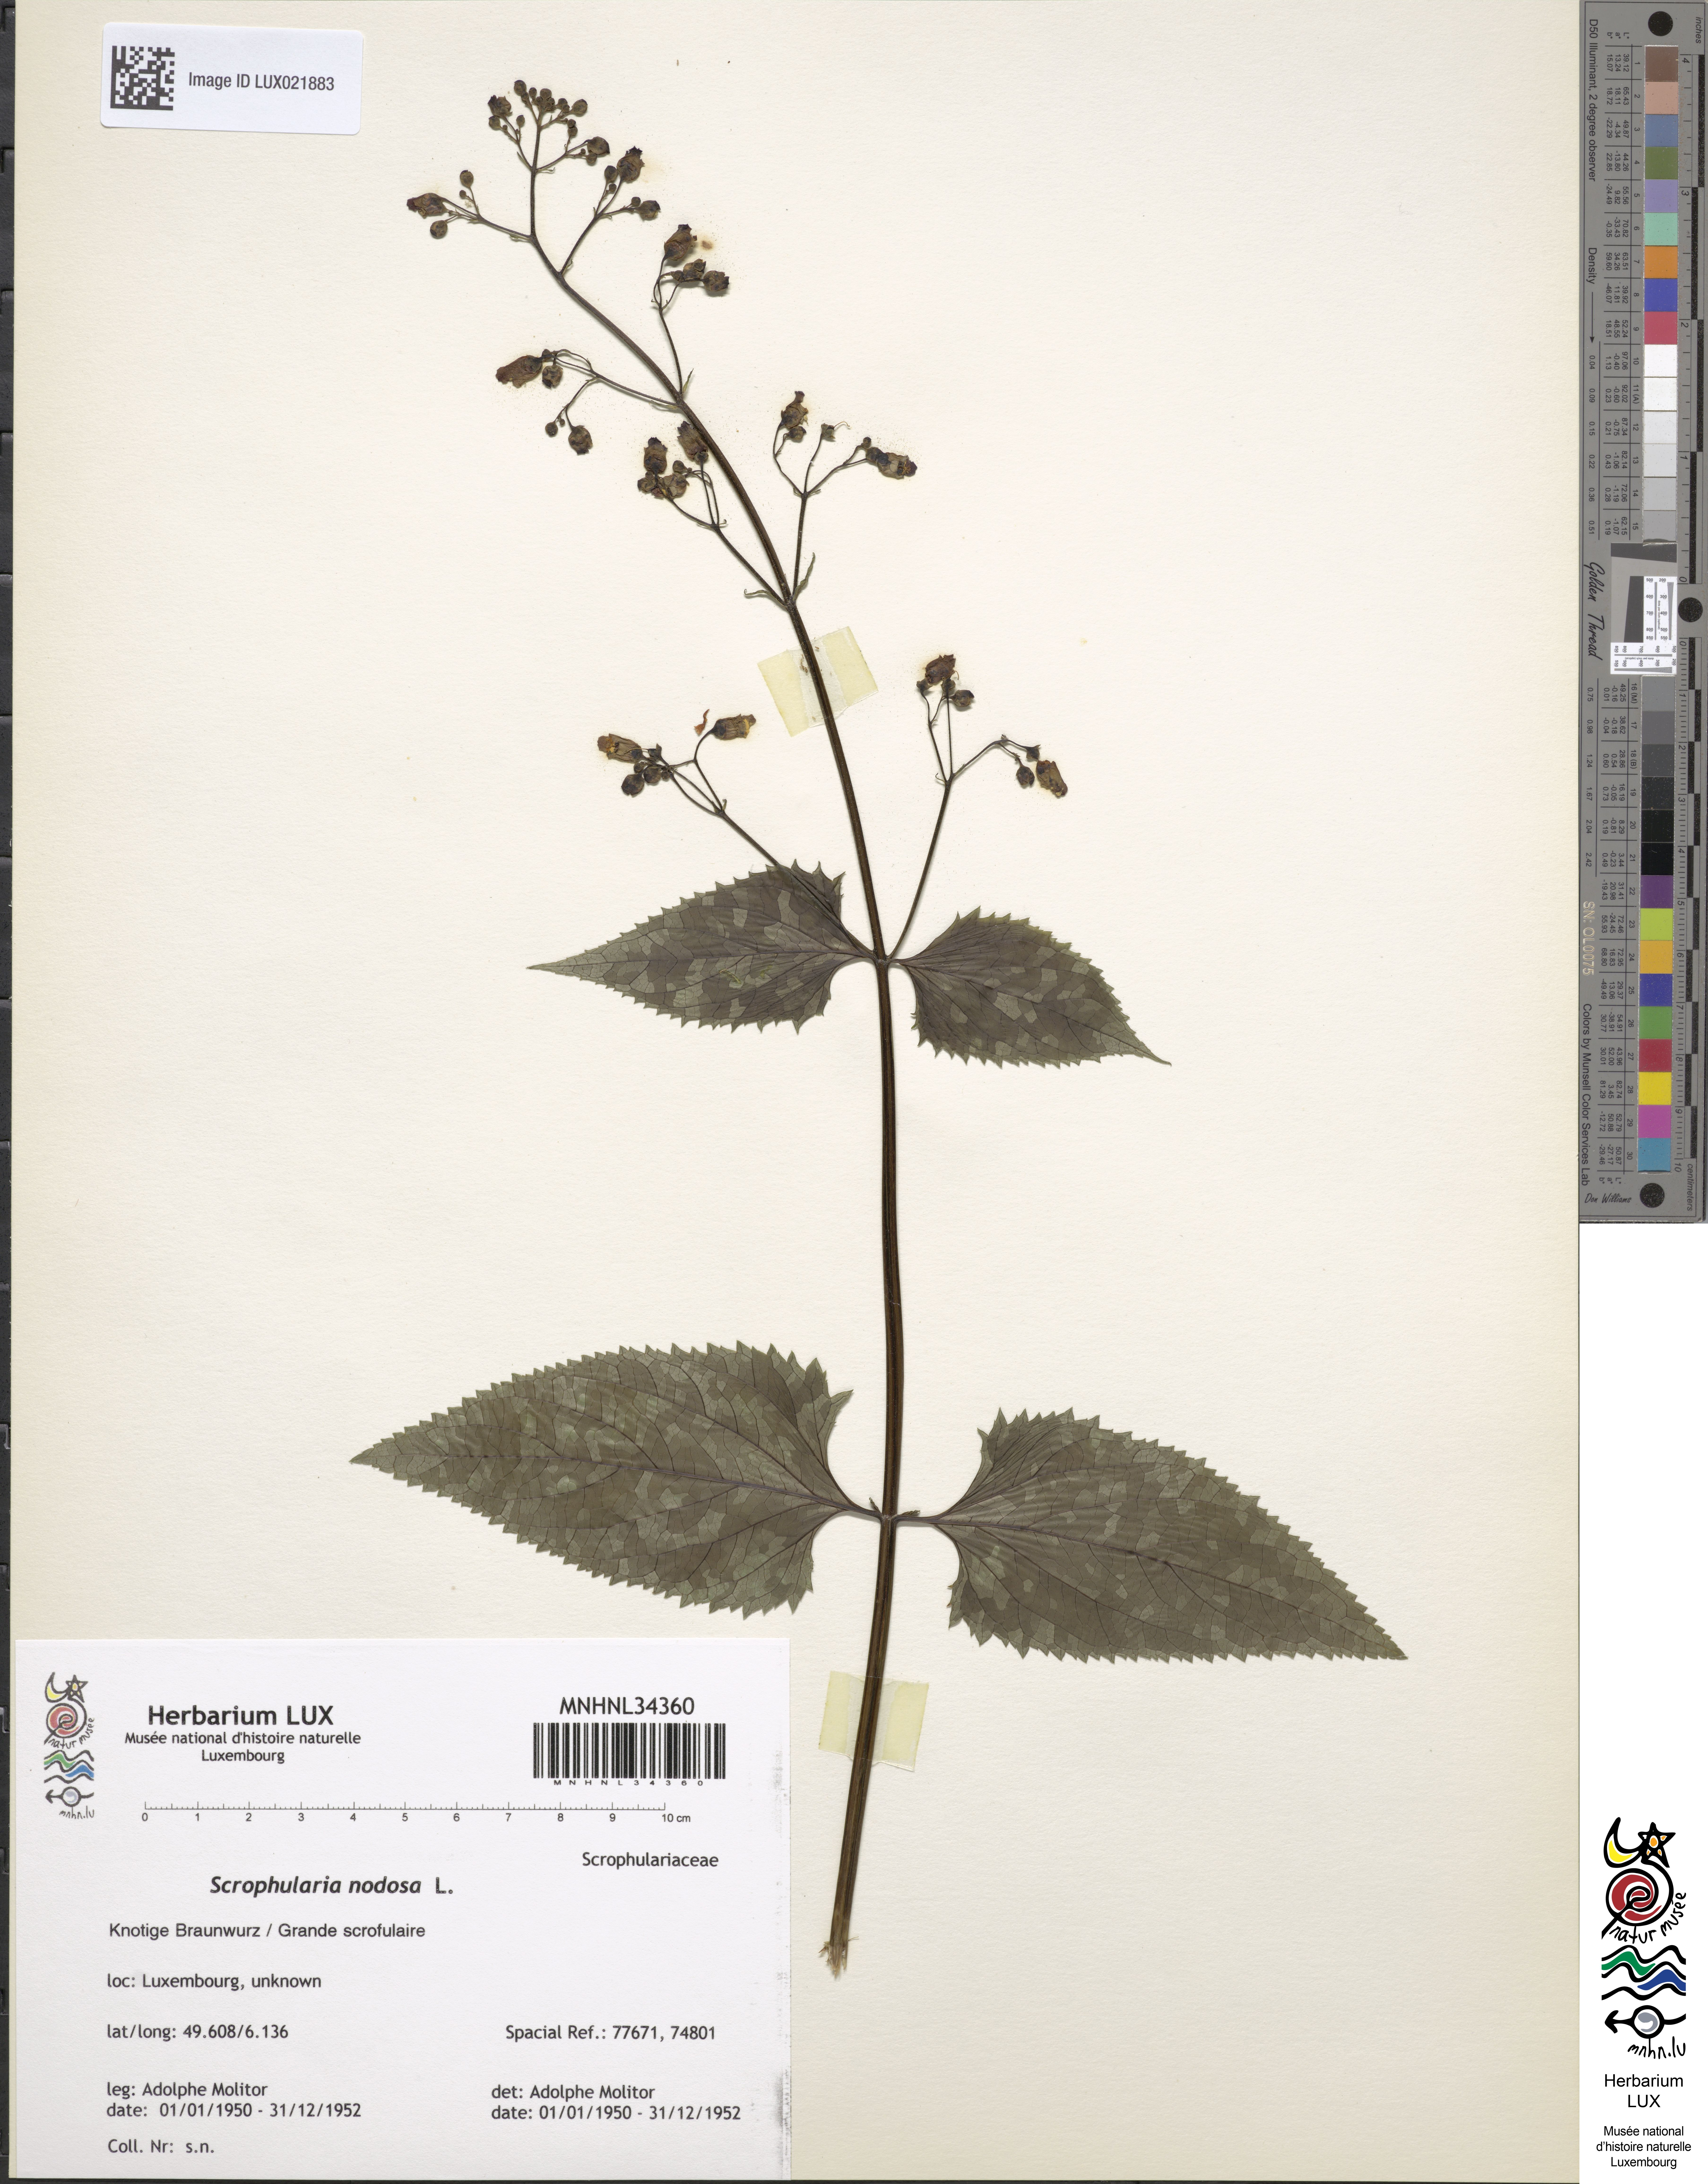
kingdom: Plantae
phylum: Tracheophyta
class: Magnoliopsida
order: Lamiales
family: Scrophulariaceae
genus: Scrophularia
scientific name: Scrophularia nodosa
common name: Common figwort
